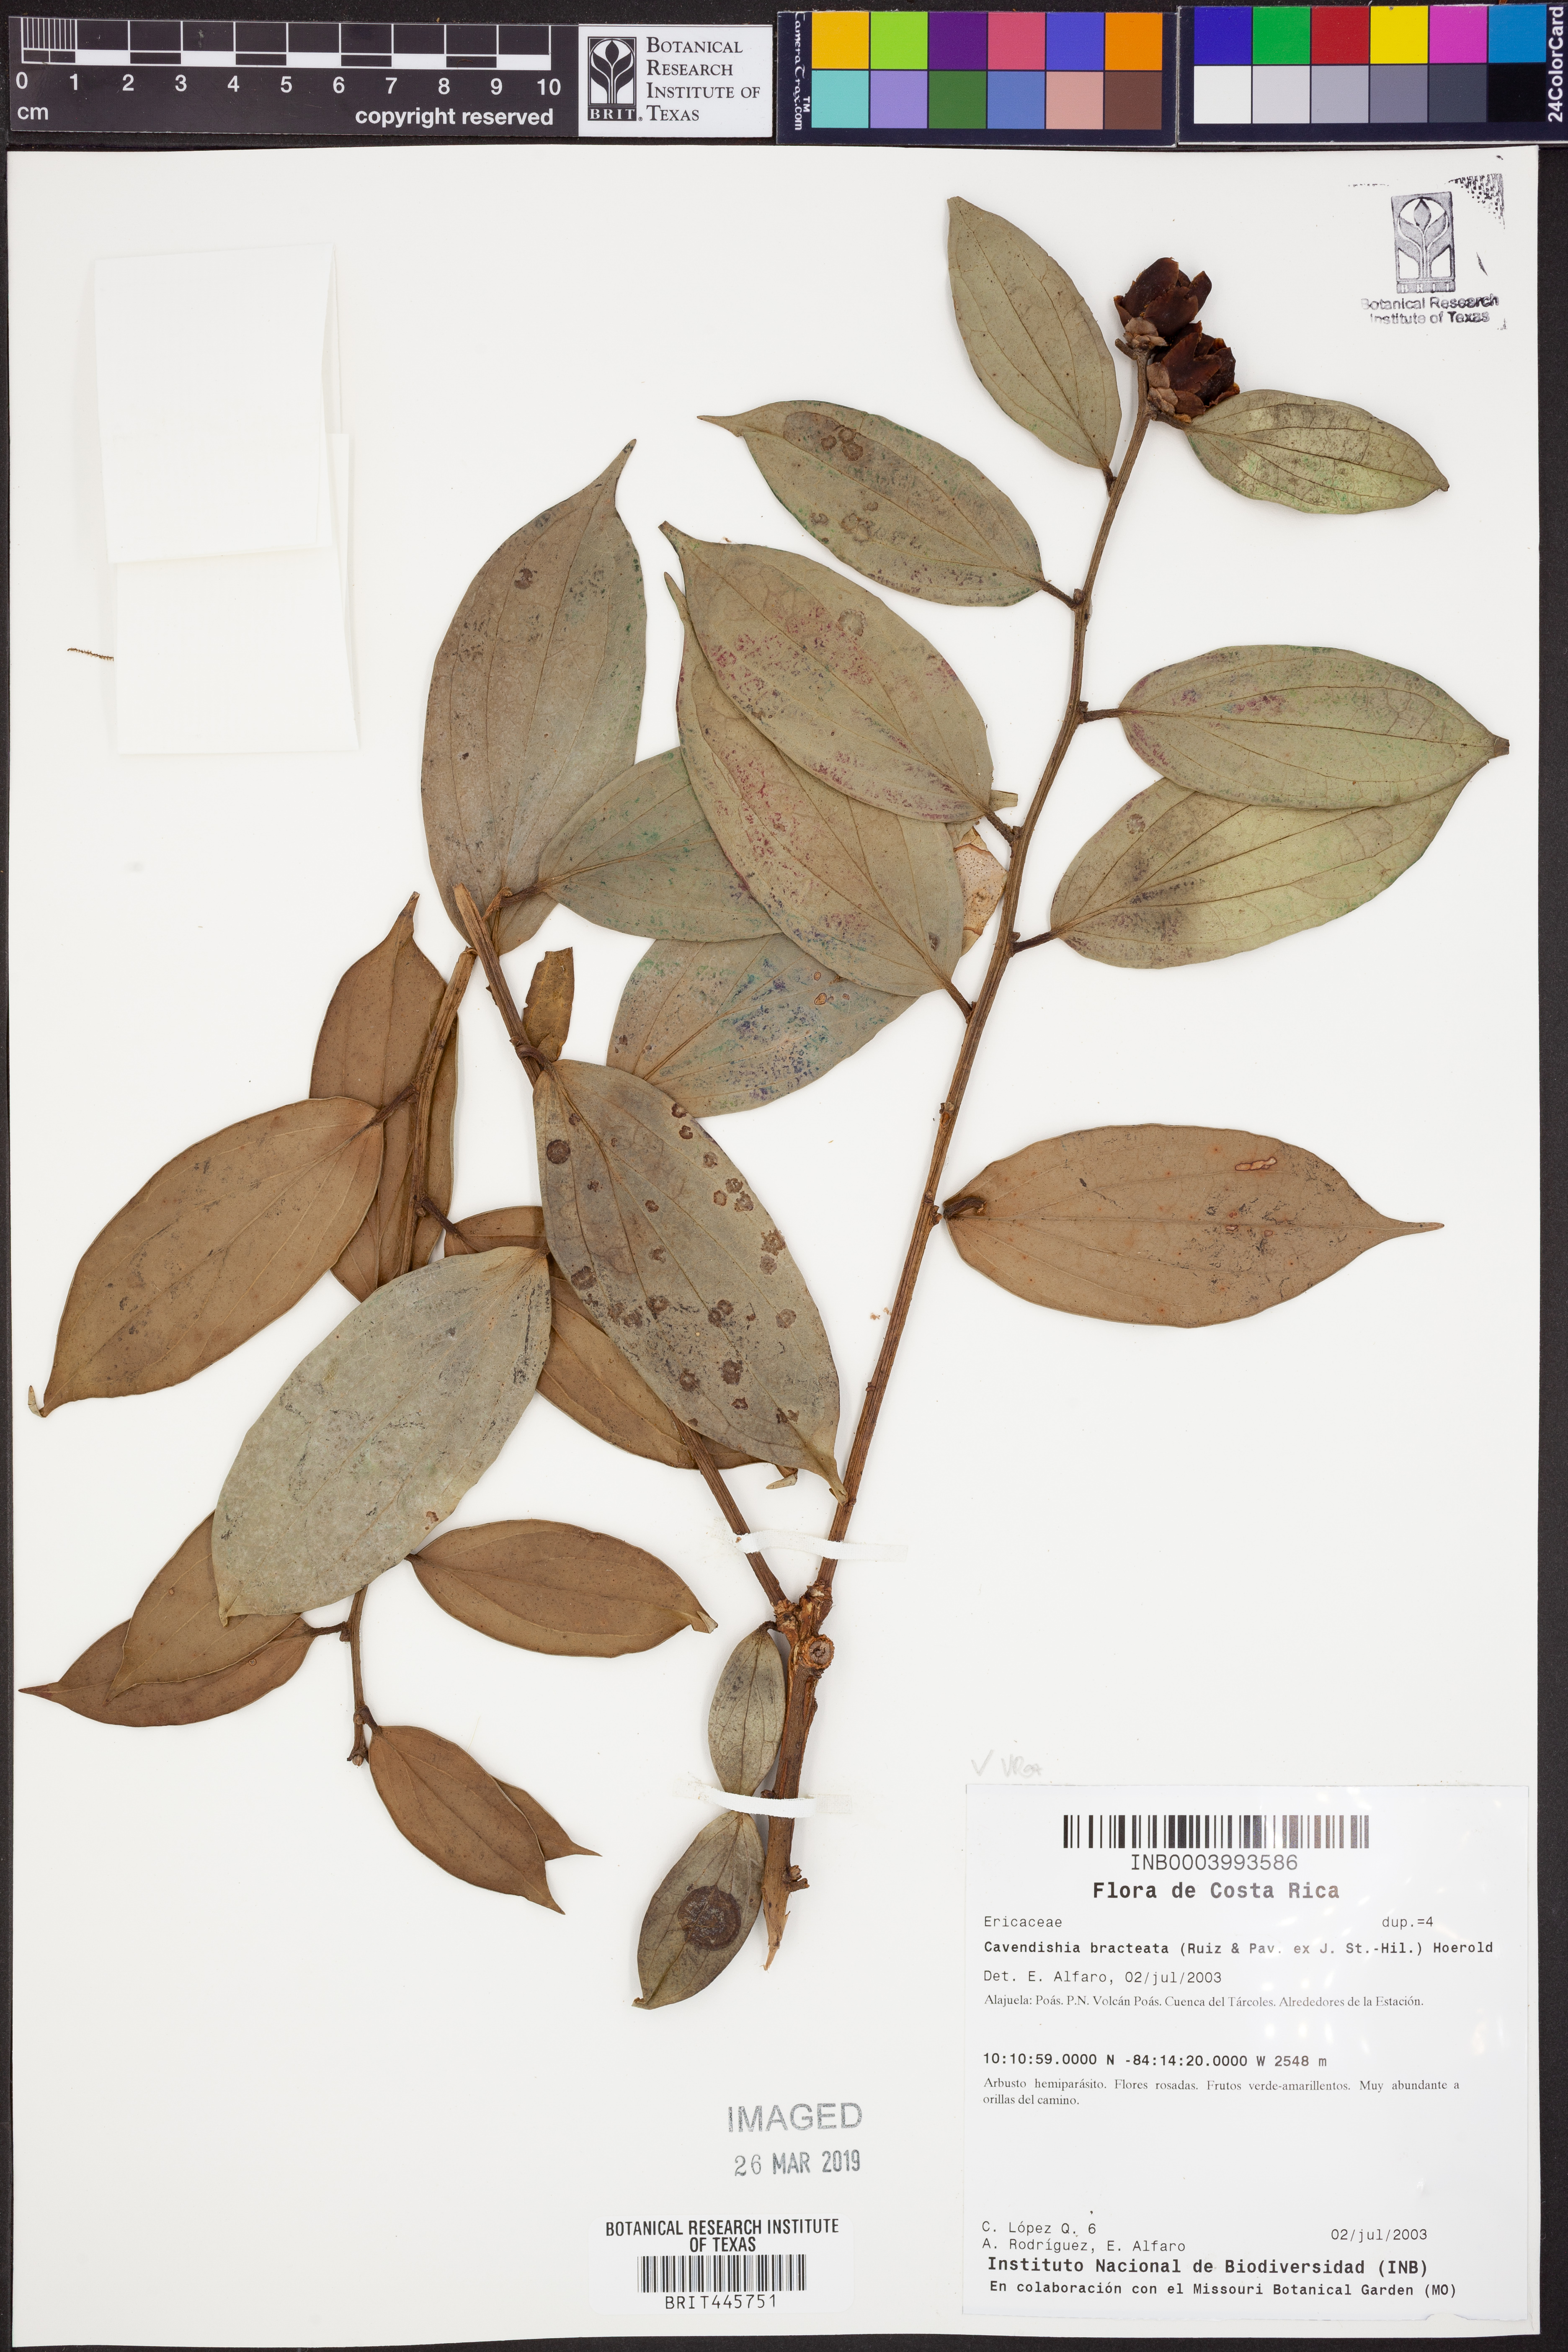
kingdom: Plantae
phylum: Tracheophyta
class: Magnoliopsida
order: Ericales
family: Ericaceae
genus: Cavendishia
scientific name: Cavendishia bracteata
